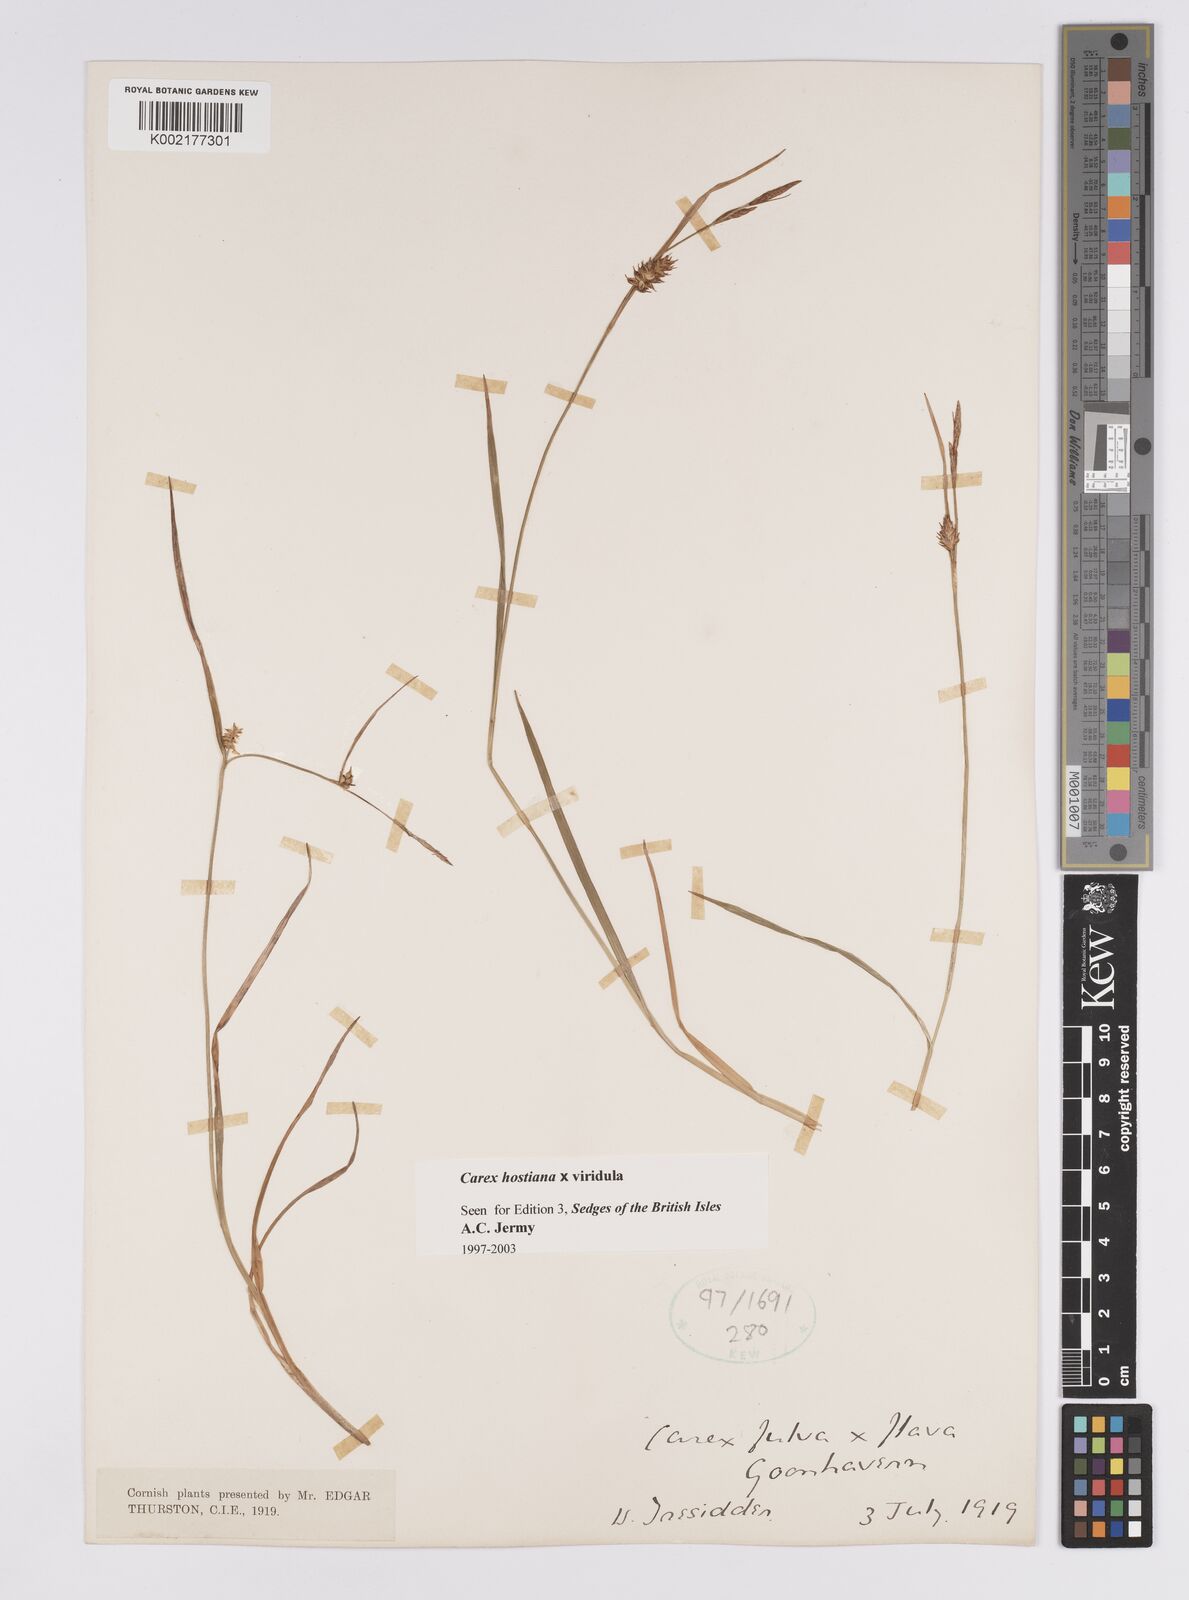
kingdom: Plantae
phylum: Tracheophyta
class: Liliopsida
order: Poales
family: Cyperaceae
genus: Carex
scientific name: Carex hostiana
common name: Tawny sedge
